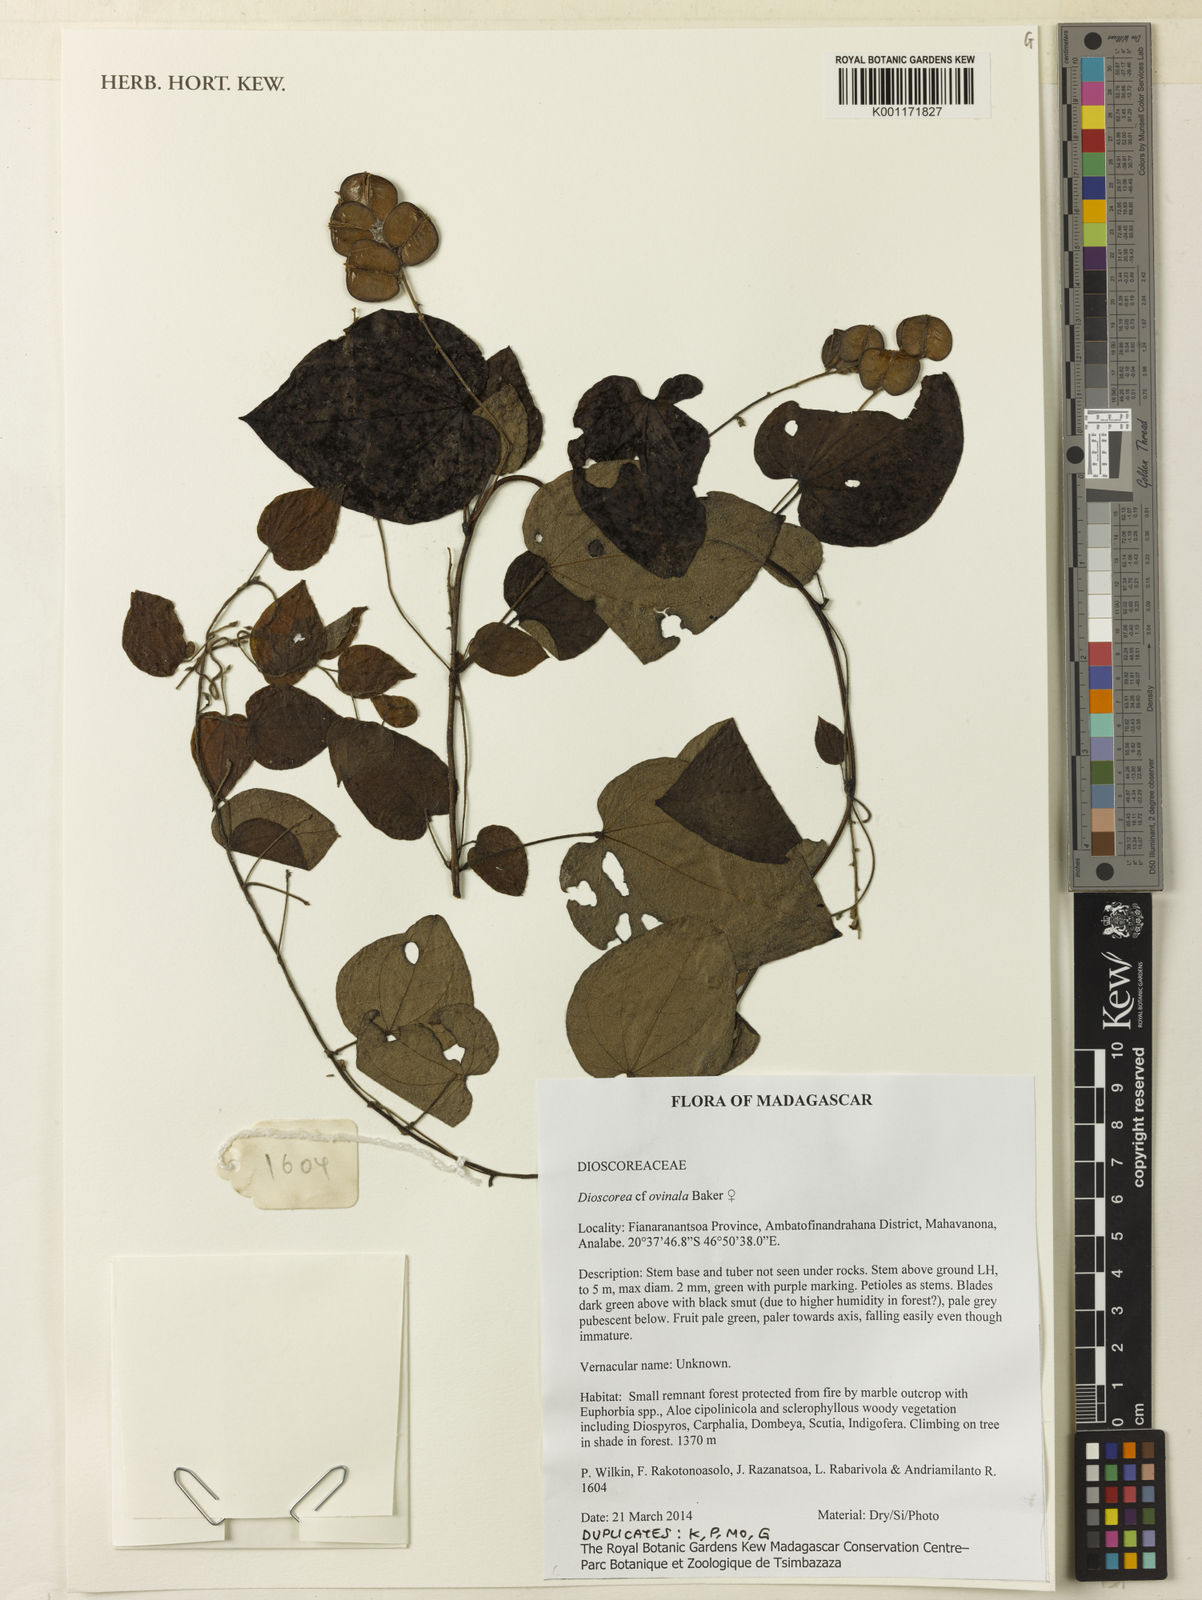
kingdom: Plantae
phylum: Tracheophyta
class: Liliopsida
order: Dioscoreales
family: Dioscoreaceae
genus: Dioscorea
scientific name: Dioscorea ovinala
